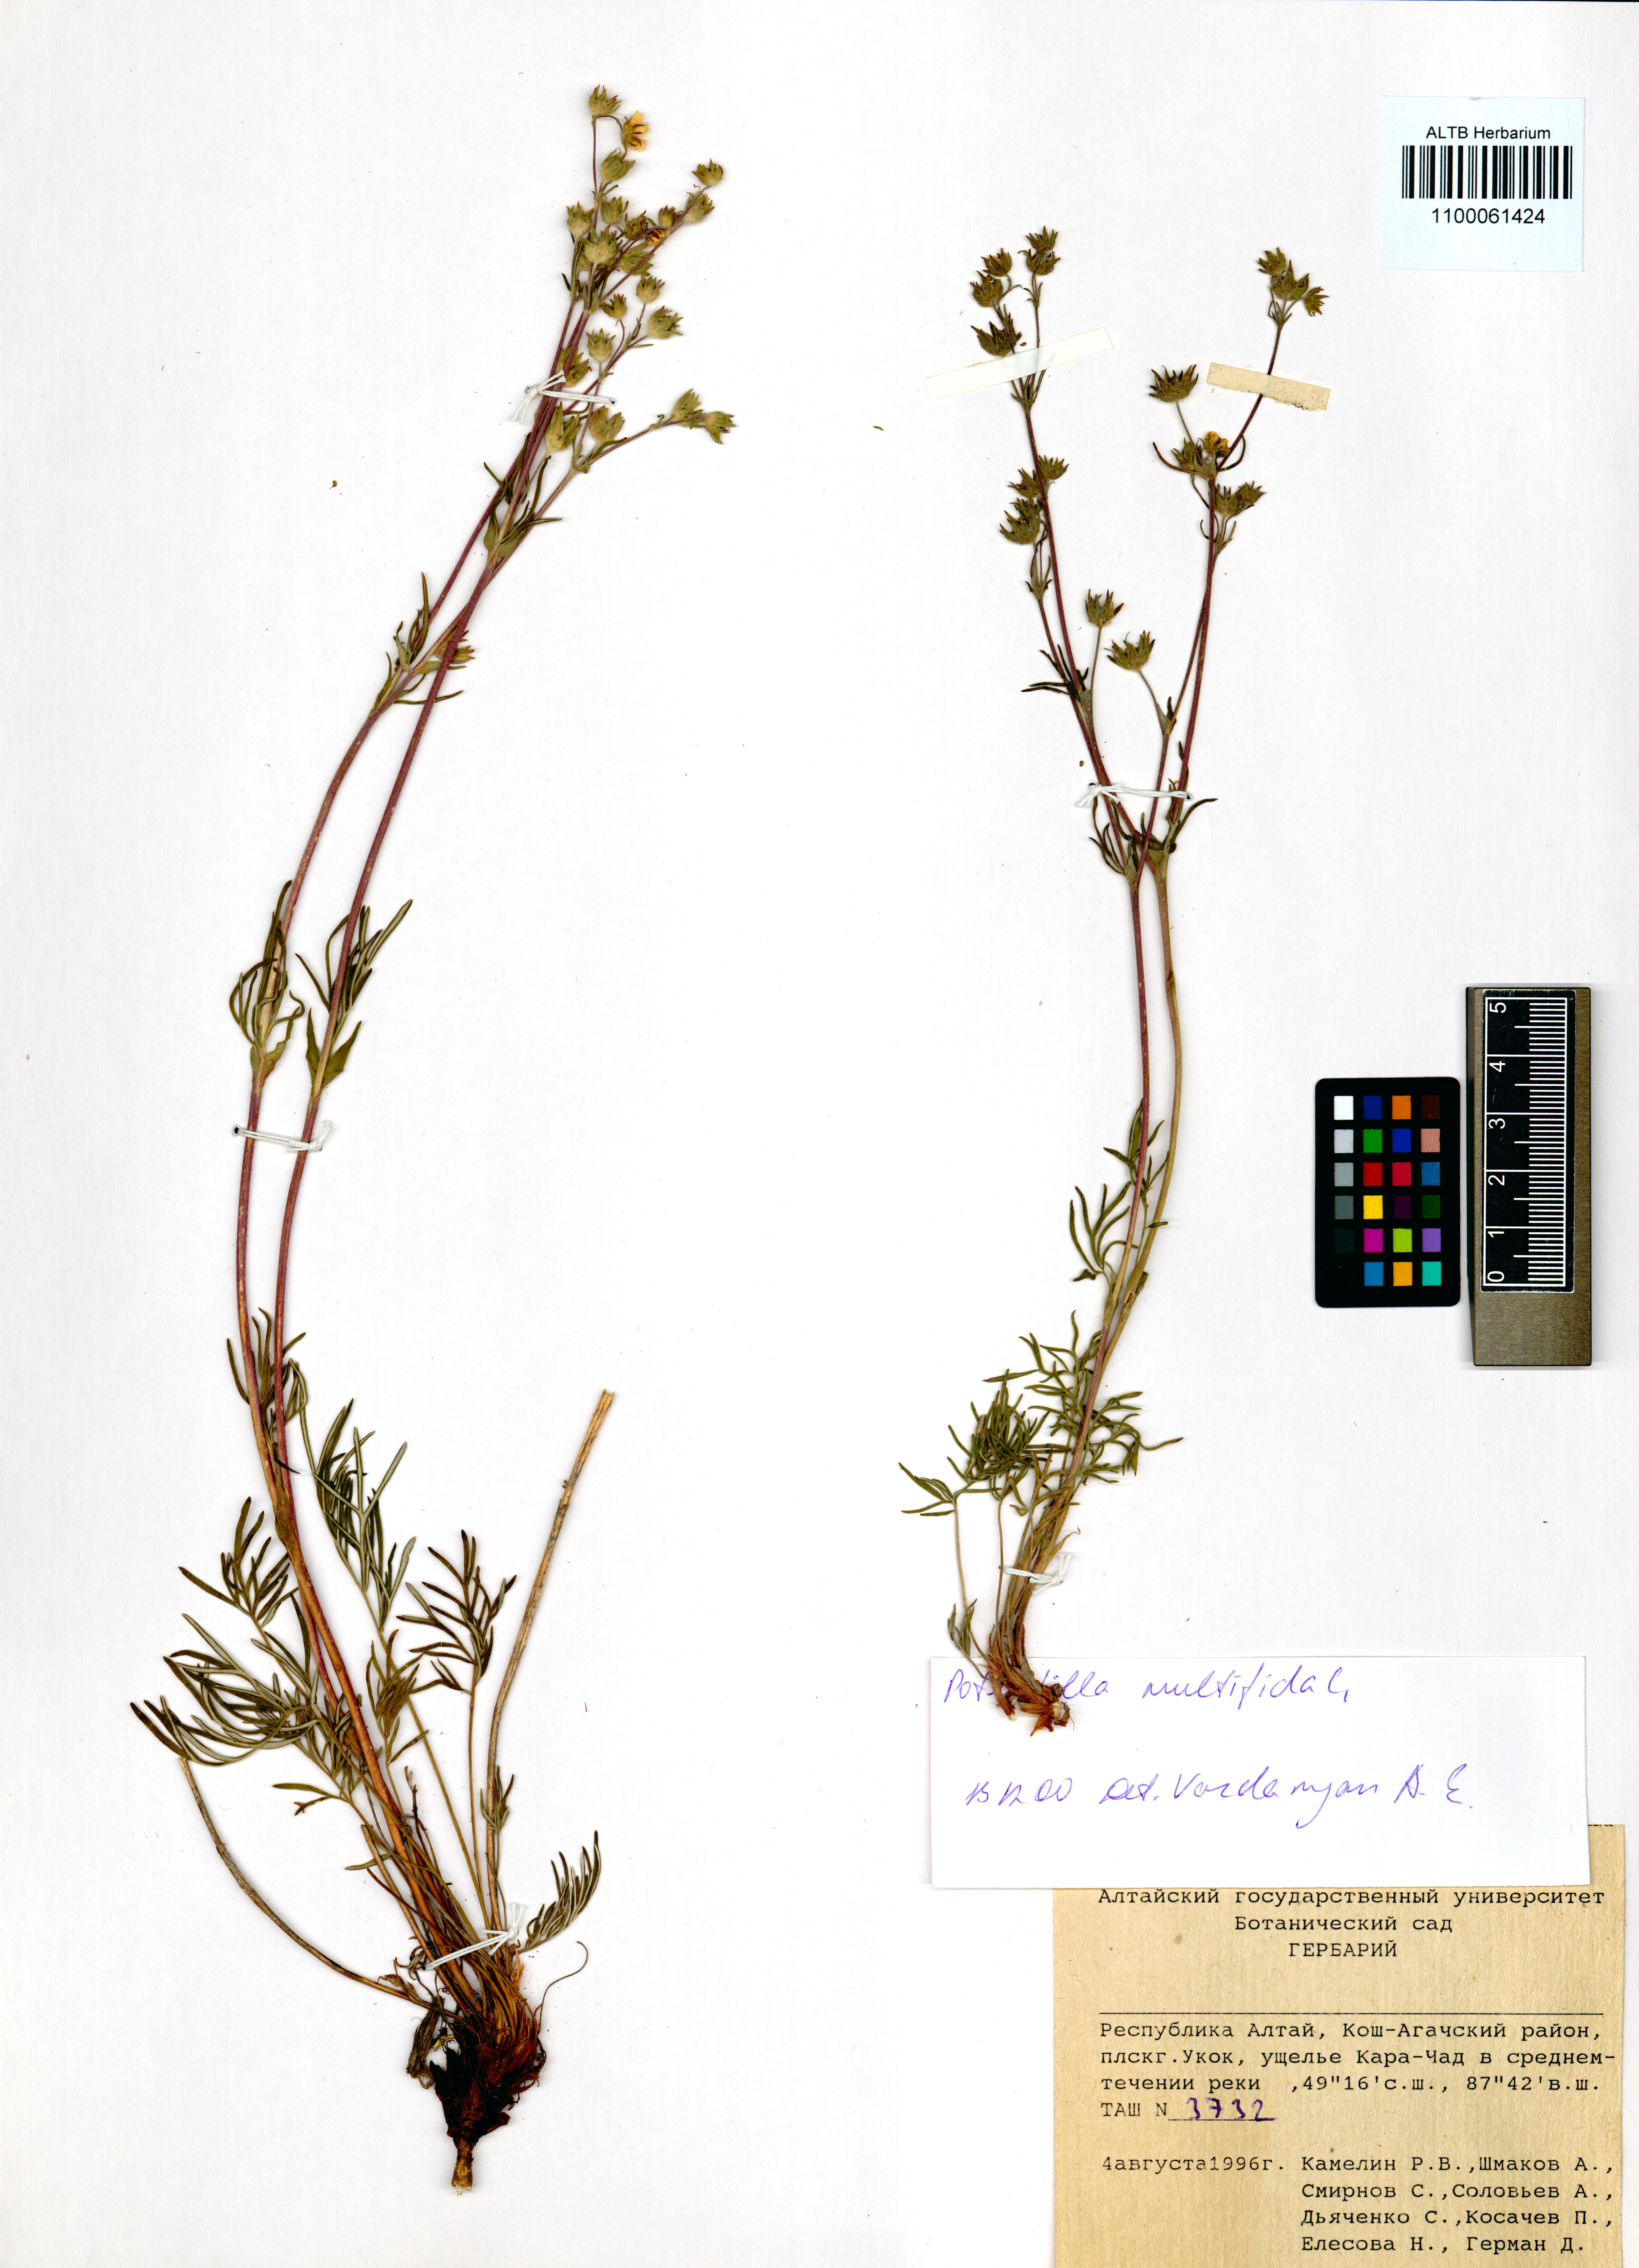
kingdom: Plantae
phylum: Tracheophyta
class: Magnoliopsida
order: Rosales
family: Rosaceae
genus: Potentilla
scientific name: Potentilla multifida
